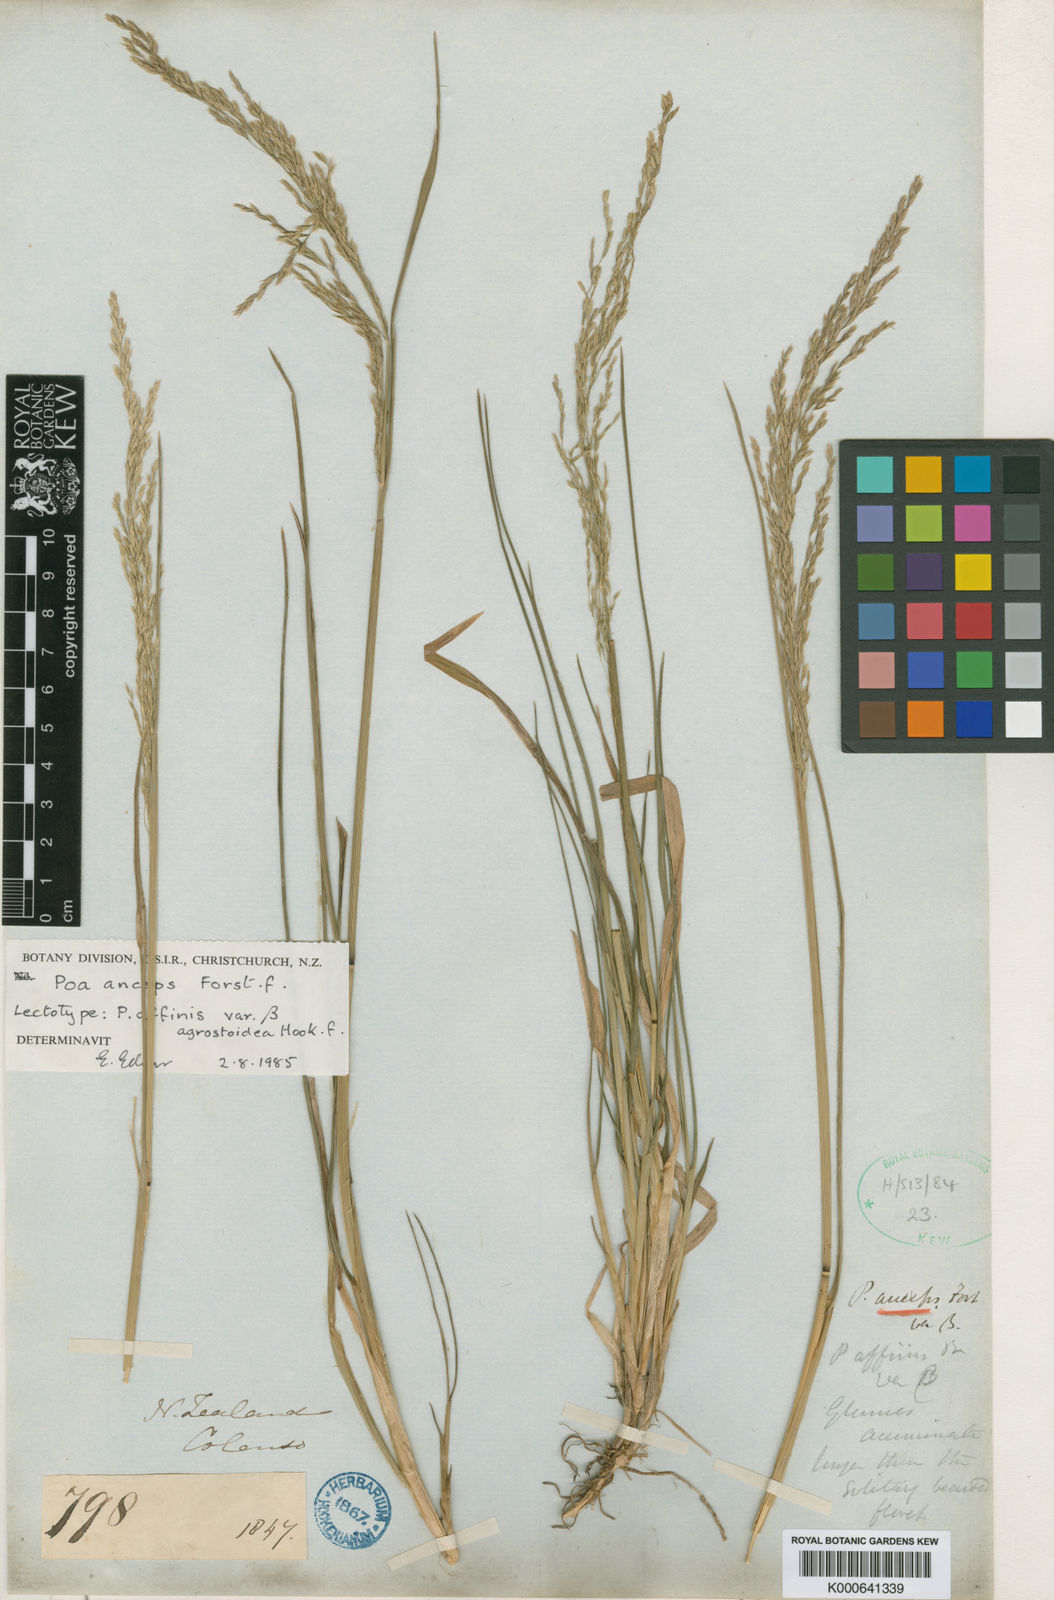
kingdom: Plantae
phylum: Tracheophyta
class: Liliopsida
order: Poales
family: Poaceae
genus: Poa
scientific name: Poa anceps
